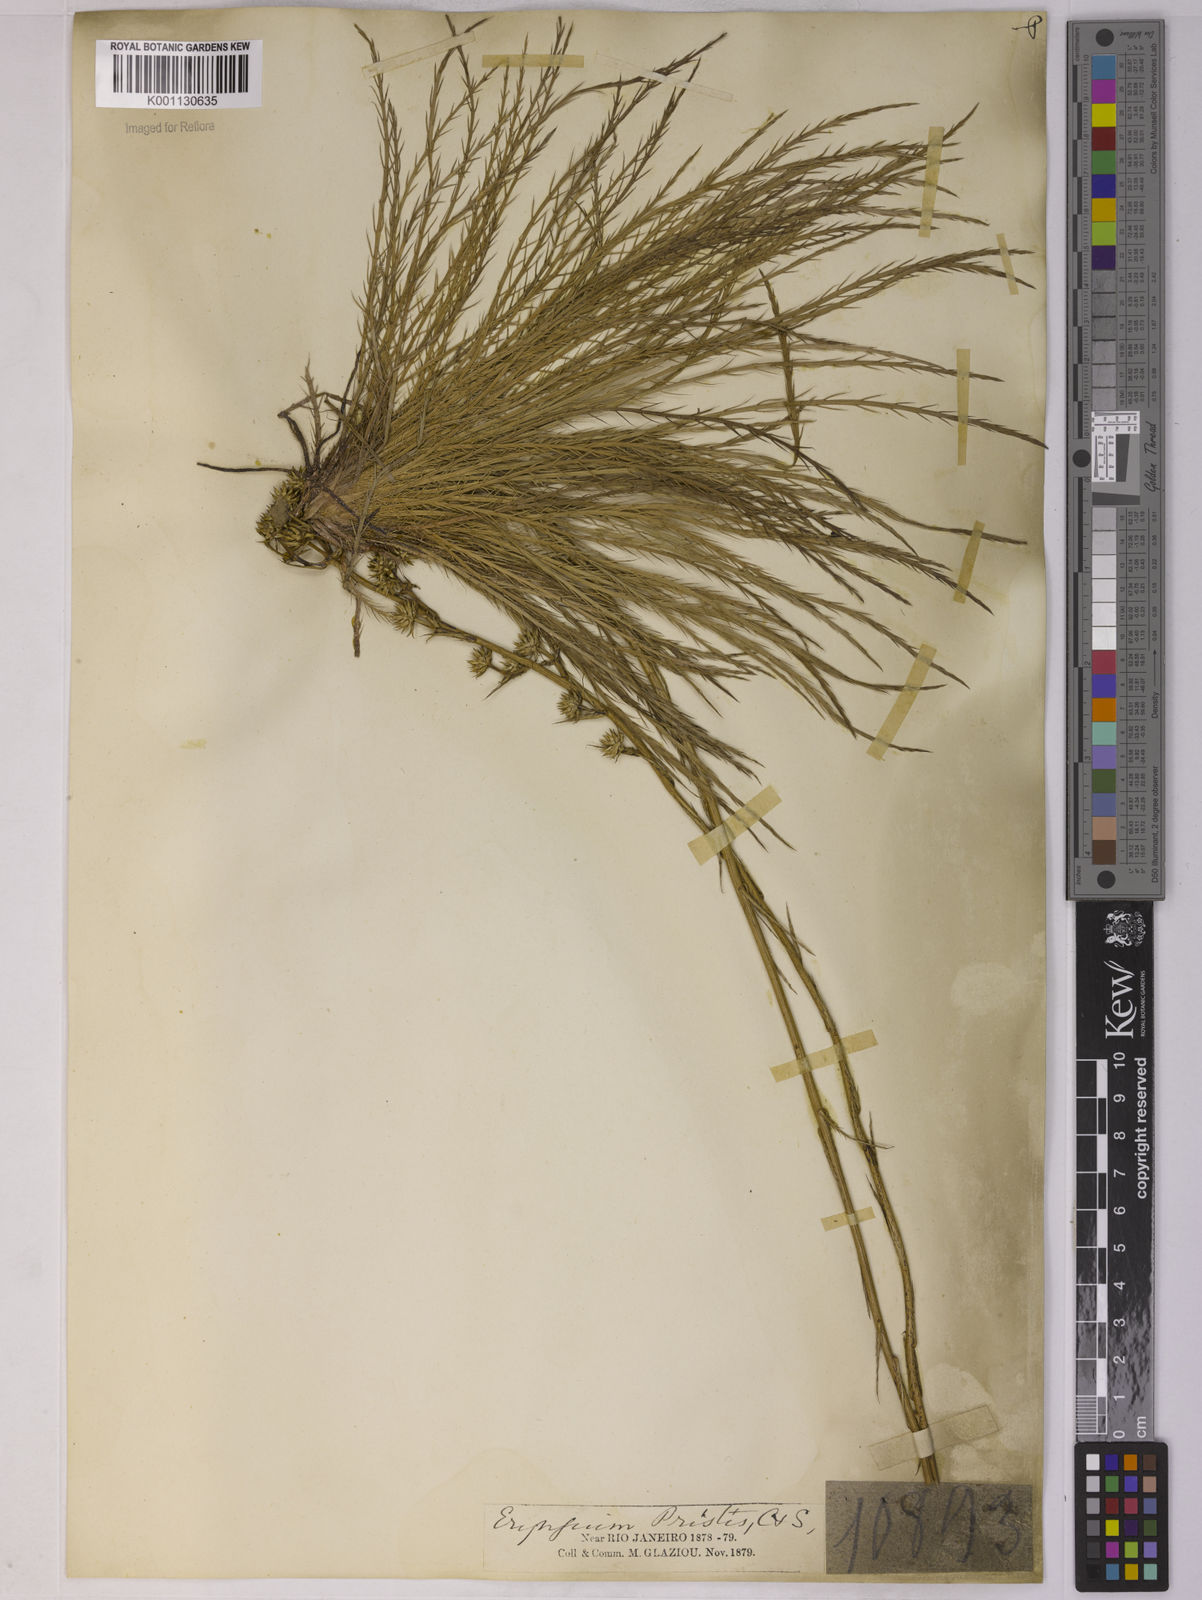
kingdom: Plantae
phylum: Tracheophyta
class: Magnoliopsida
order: Apiales
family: Apiaceae
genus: Eryngium
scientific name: Eryngium pristis
